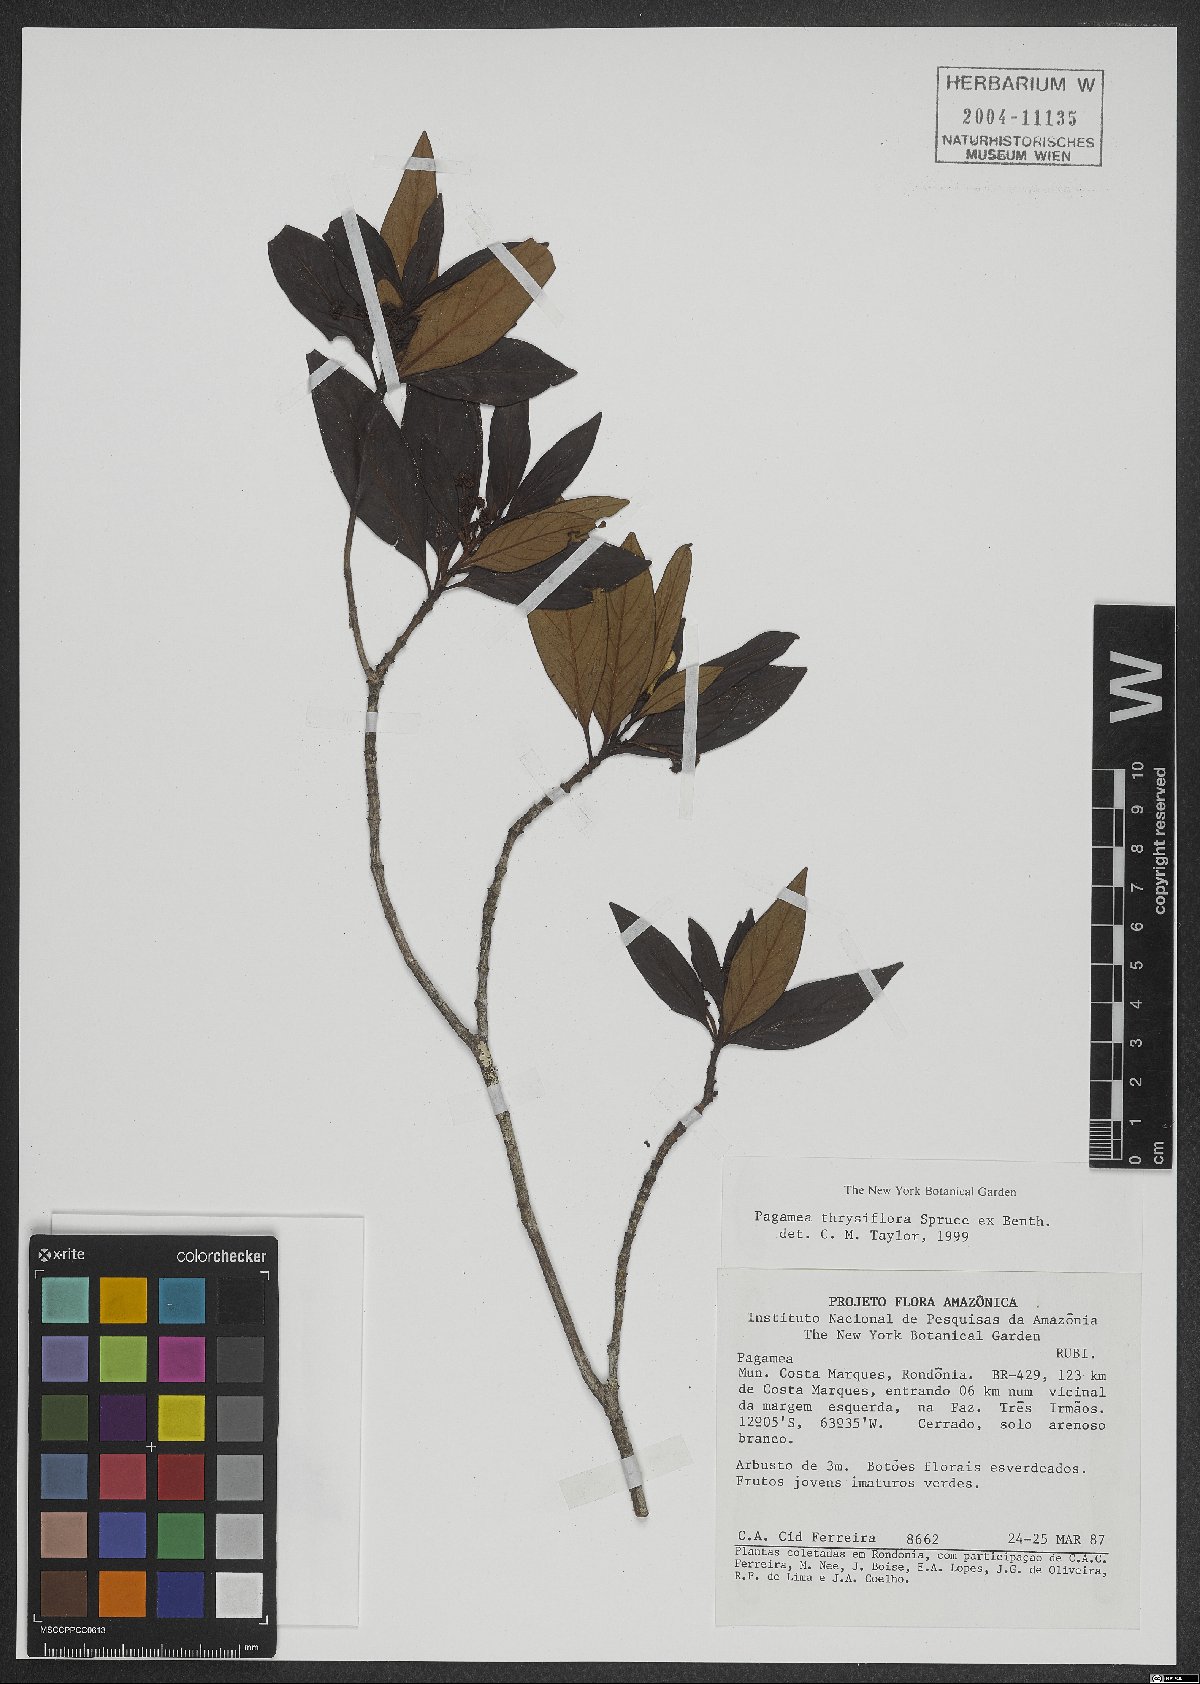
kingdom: Plantae
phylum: Tracheophyta
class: Magnoliopsida
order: Gentianales
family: Rubiaceae
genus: Pagamea
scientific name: Pagamea thyrsiflora
